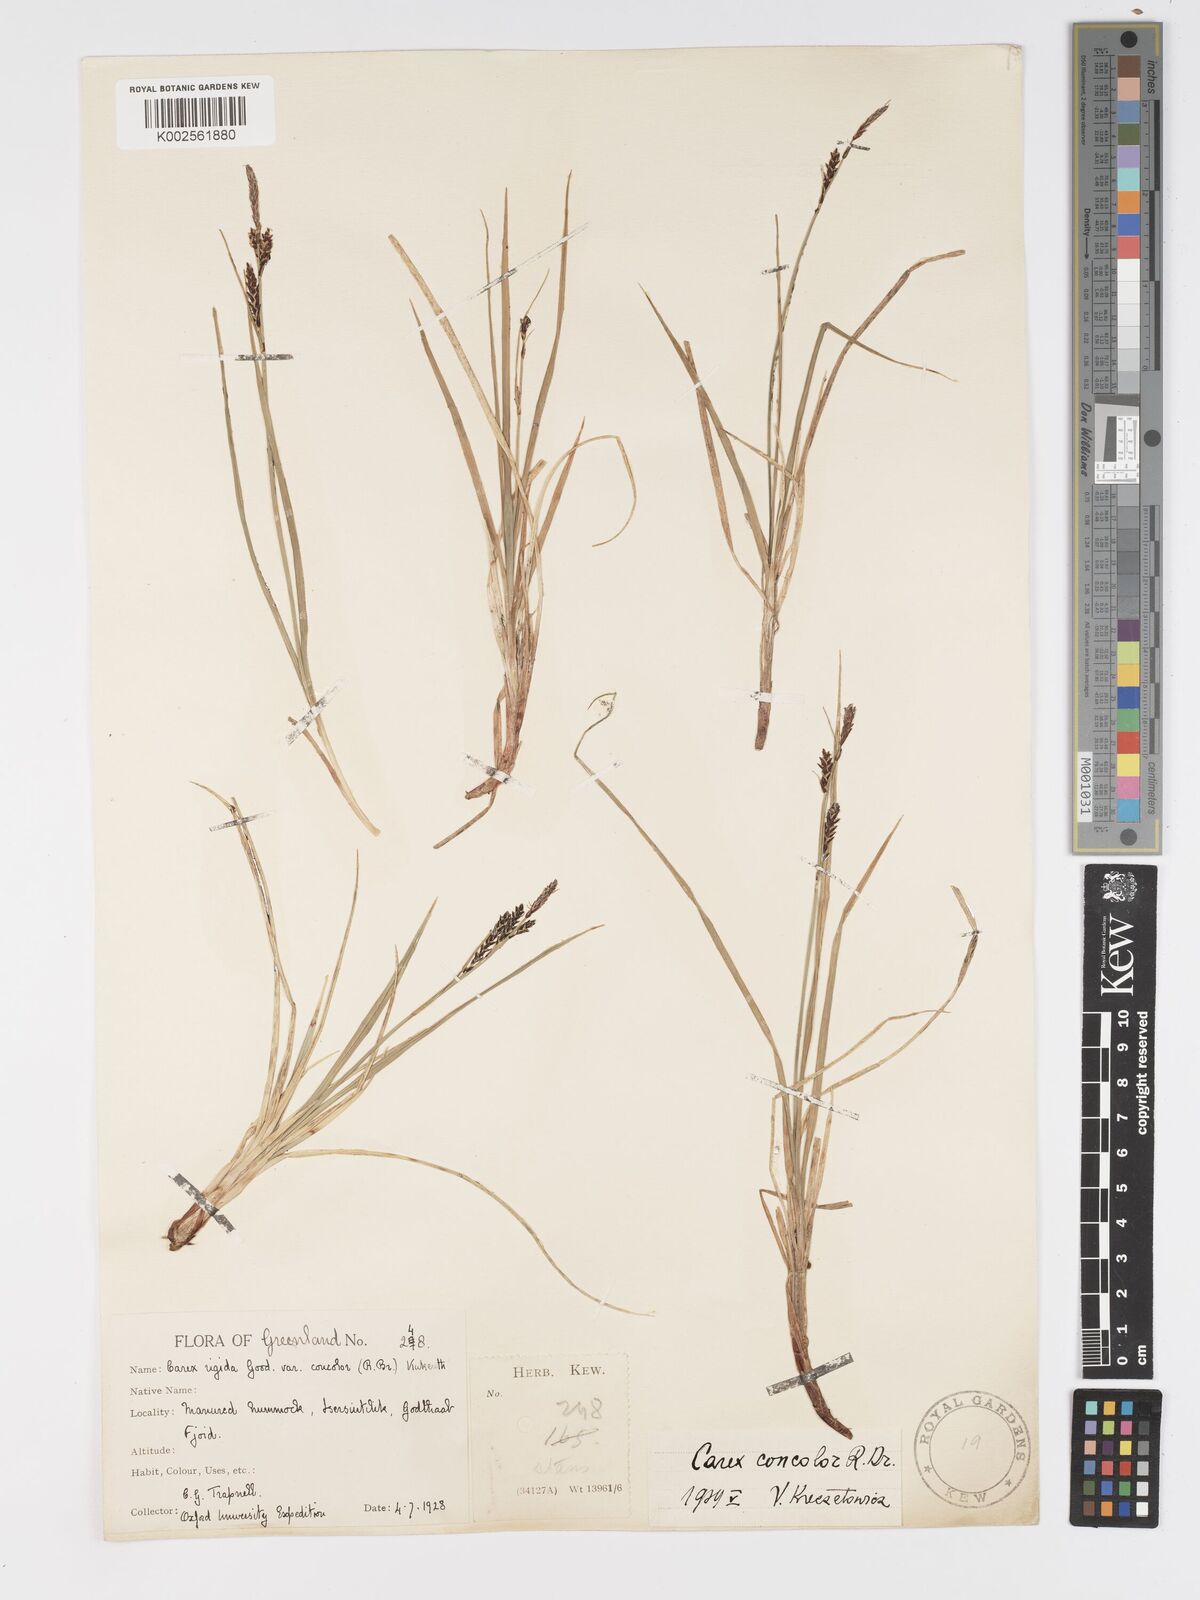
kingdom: Plantae
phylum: Tracheophyta
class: Liliopsida
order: Poales
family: Cyperaceae
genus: Carex
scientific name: Carex bigelowii
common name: Stiff sedge
